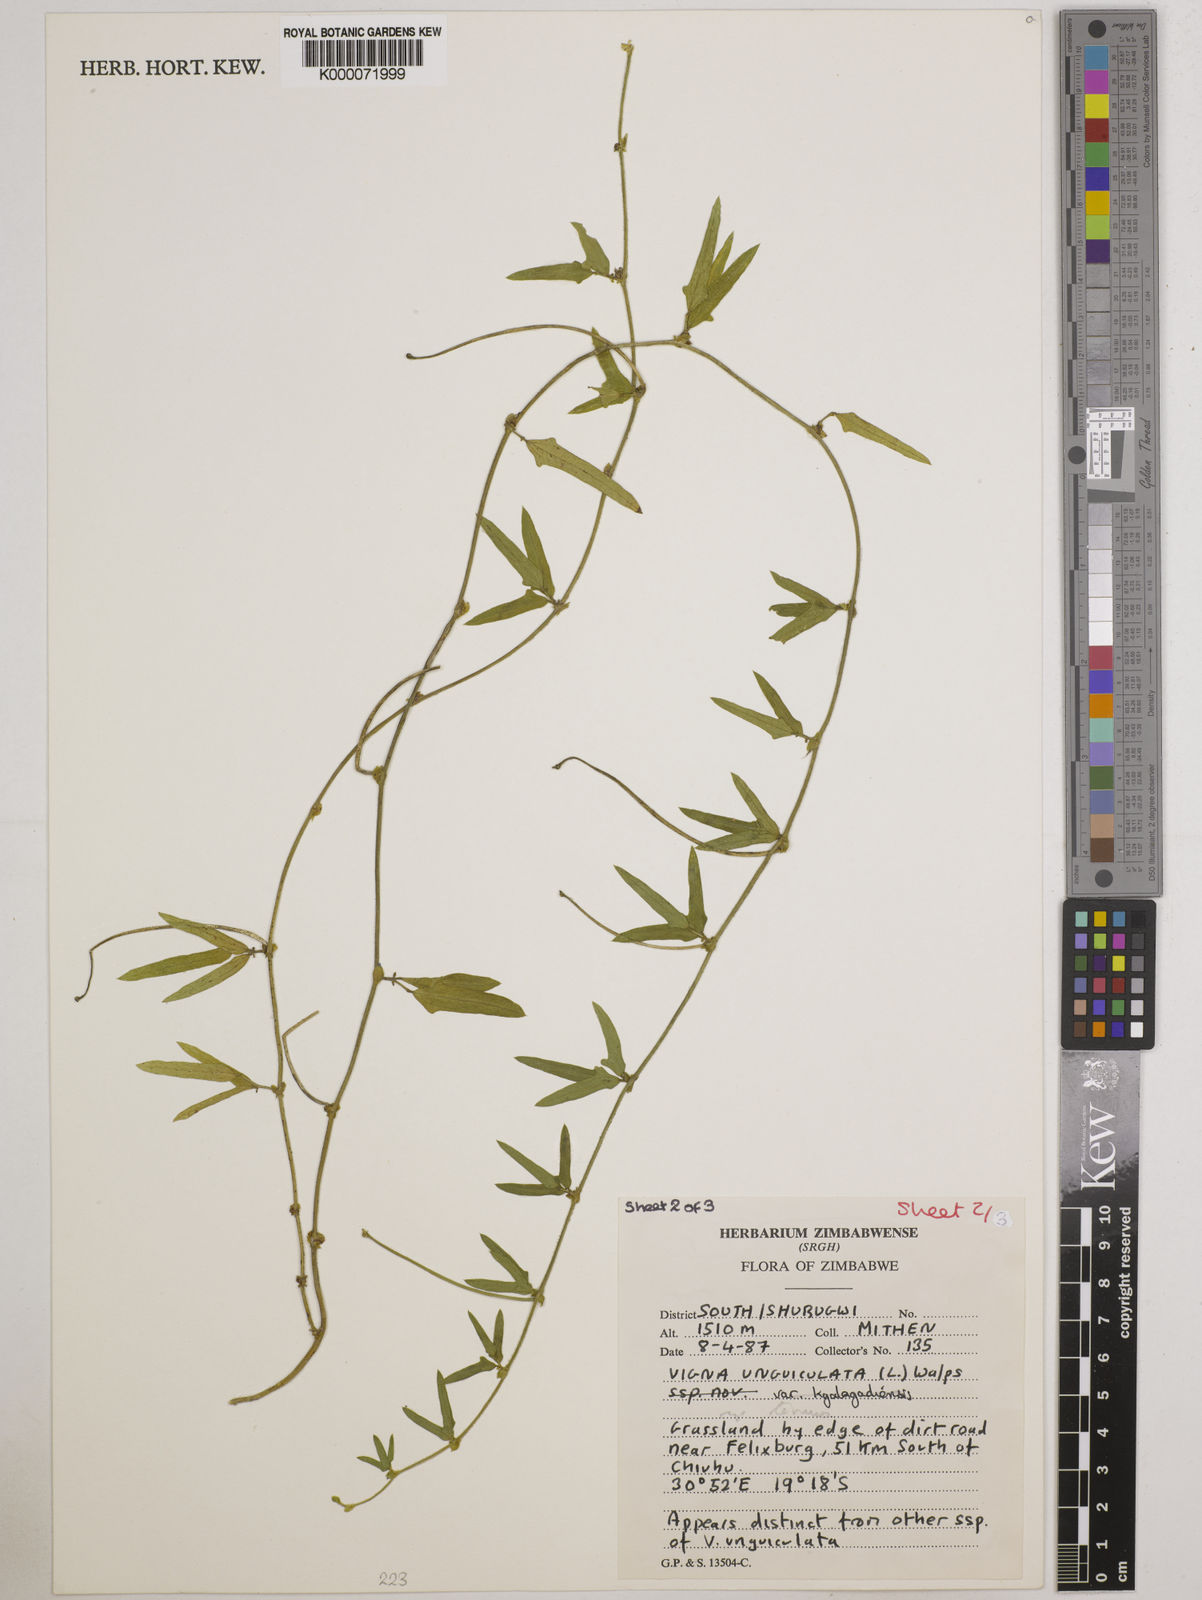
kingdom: Plantae
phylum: Tracheophyta
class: Magnoliopsida
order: Fabales
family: Fabaceae
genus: Vigna
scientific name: Vigna unguiculata
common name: Cowpea
